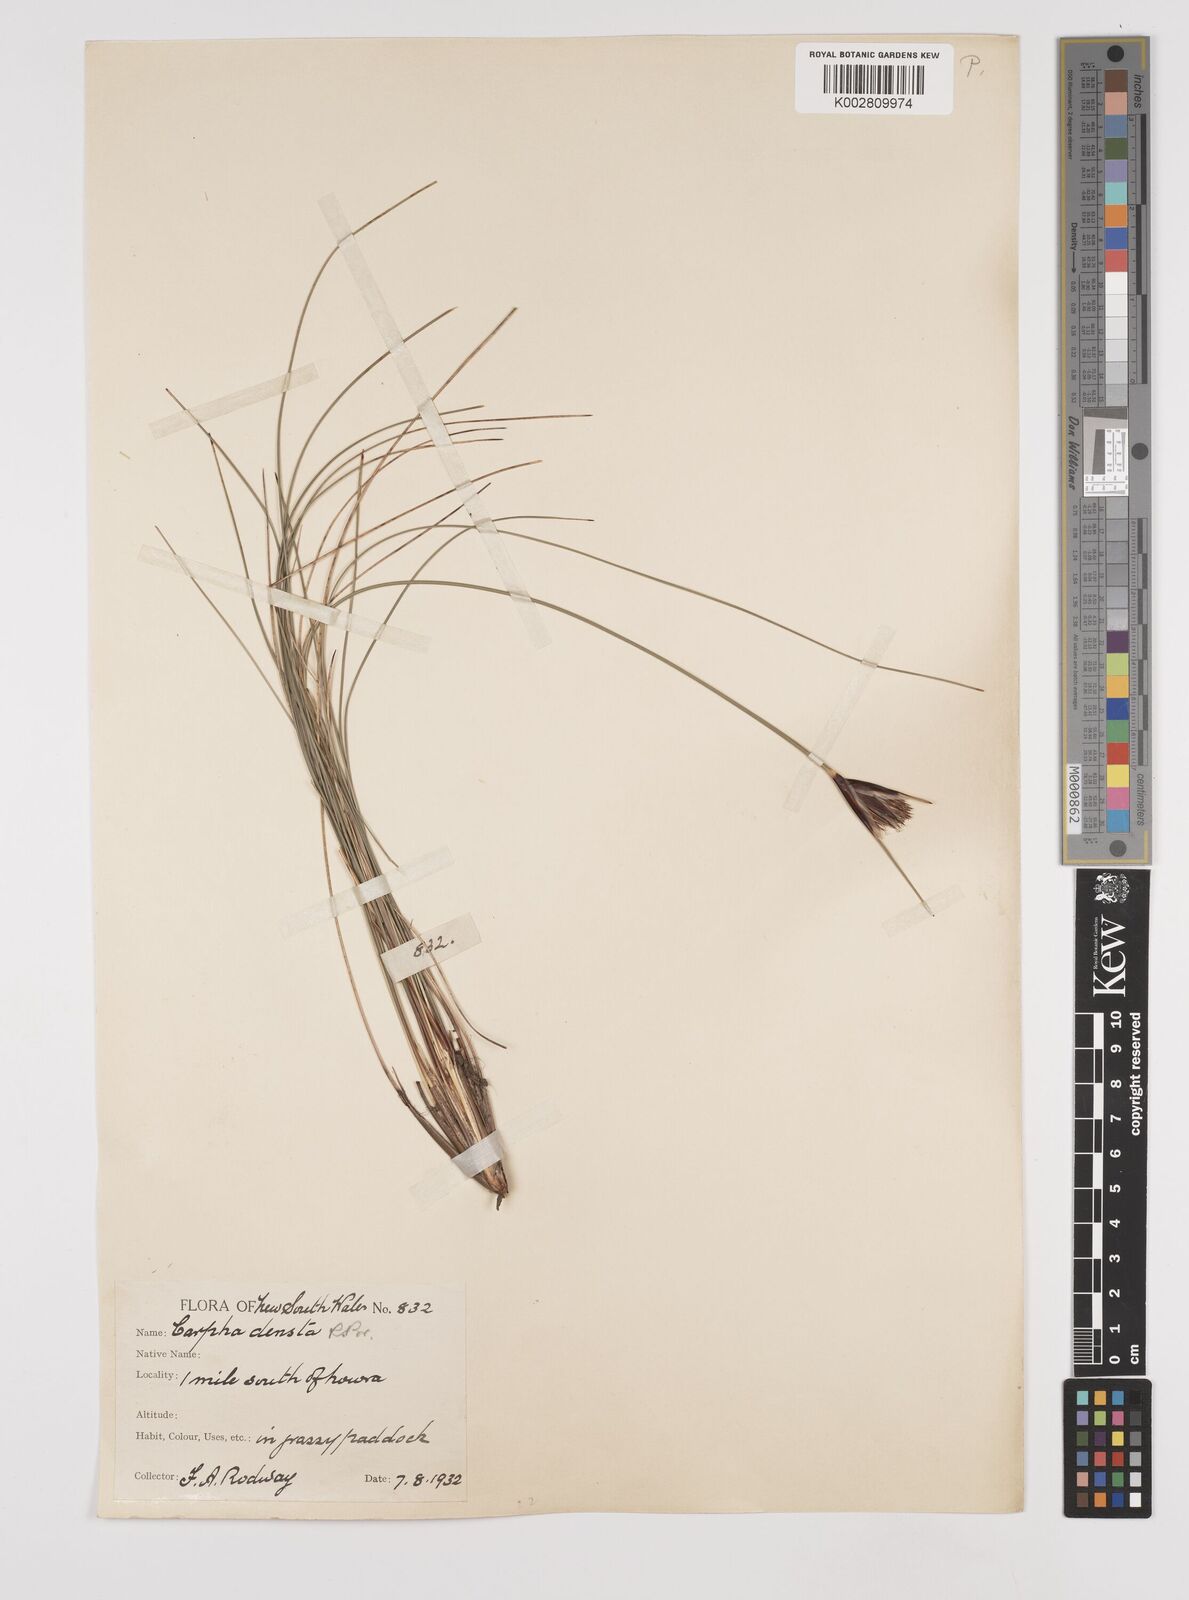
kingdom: Plantae
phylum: Tracheophyta
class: Liliopsida
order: Poales
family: Cyperaceae
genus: Ptilothrix
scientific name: Ptilothrix deusta
